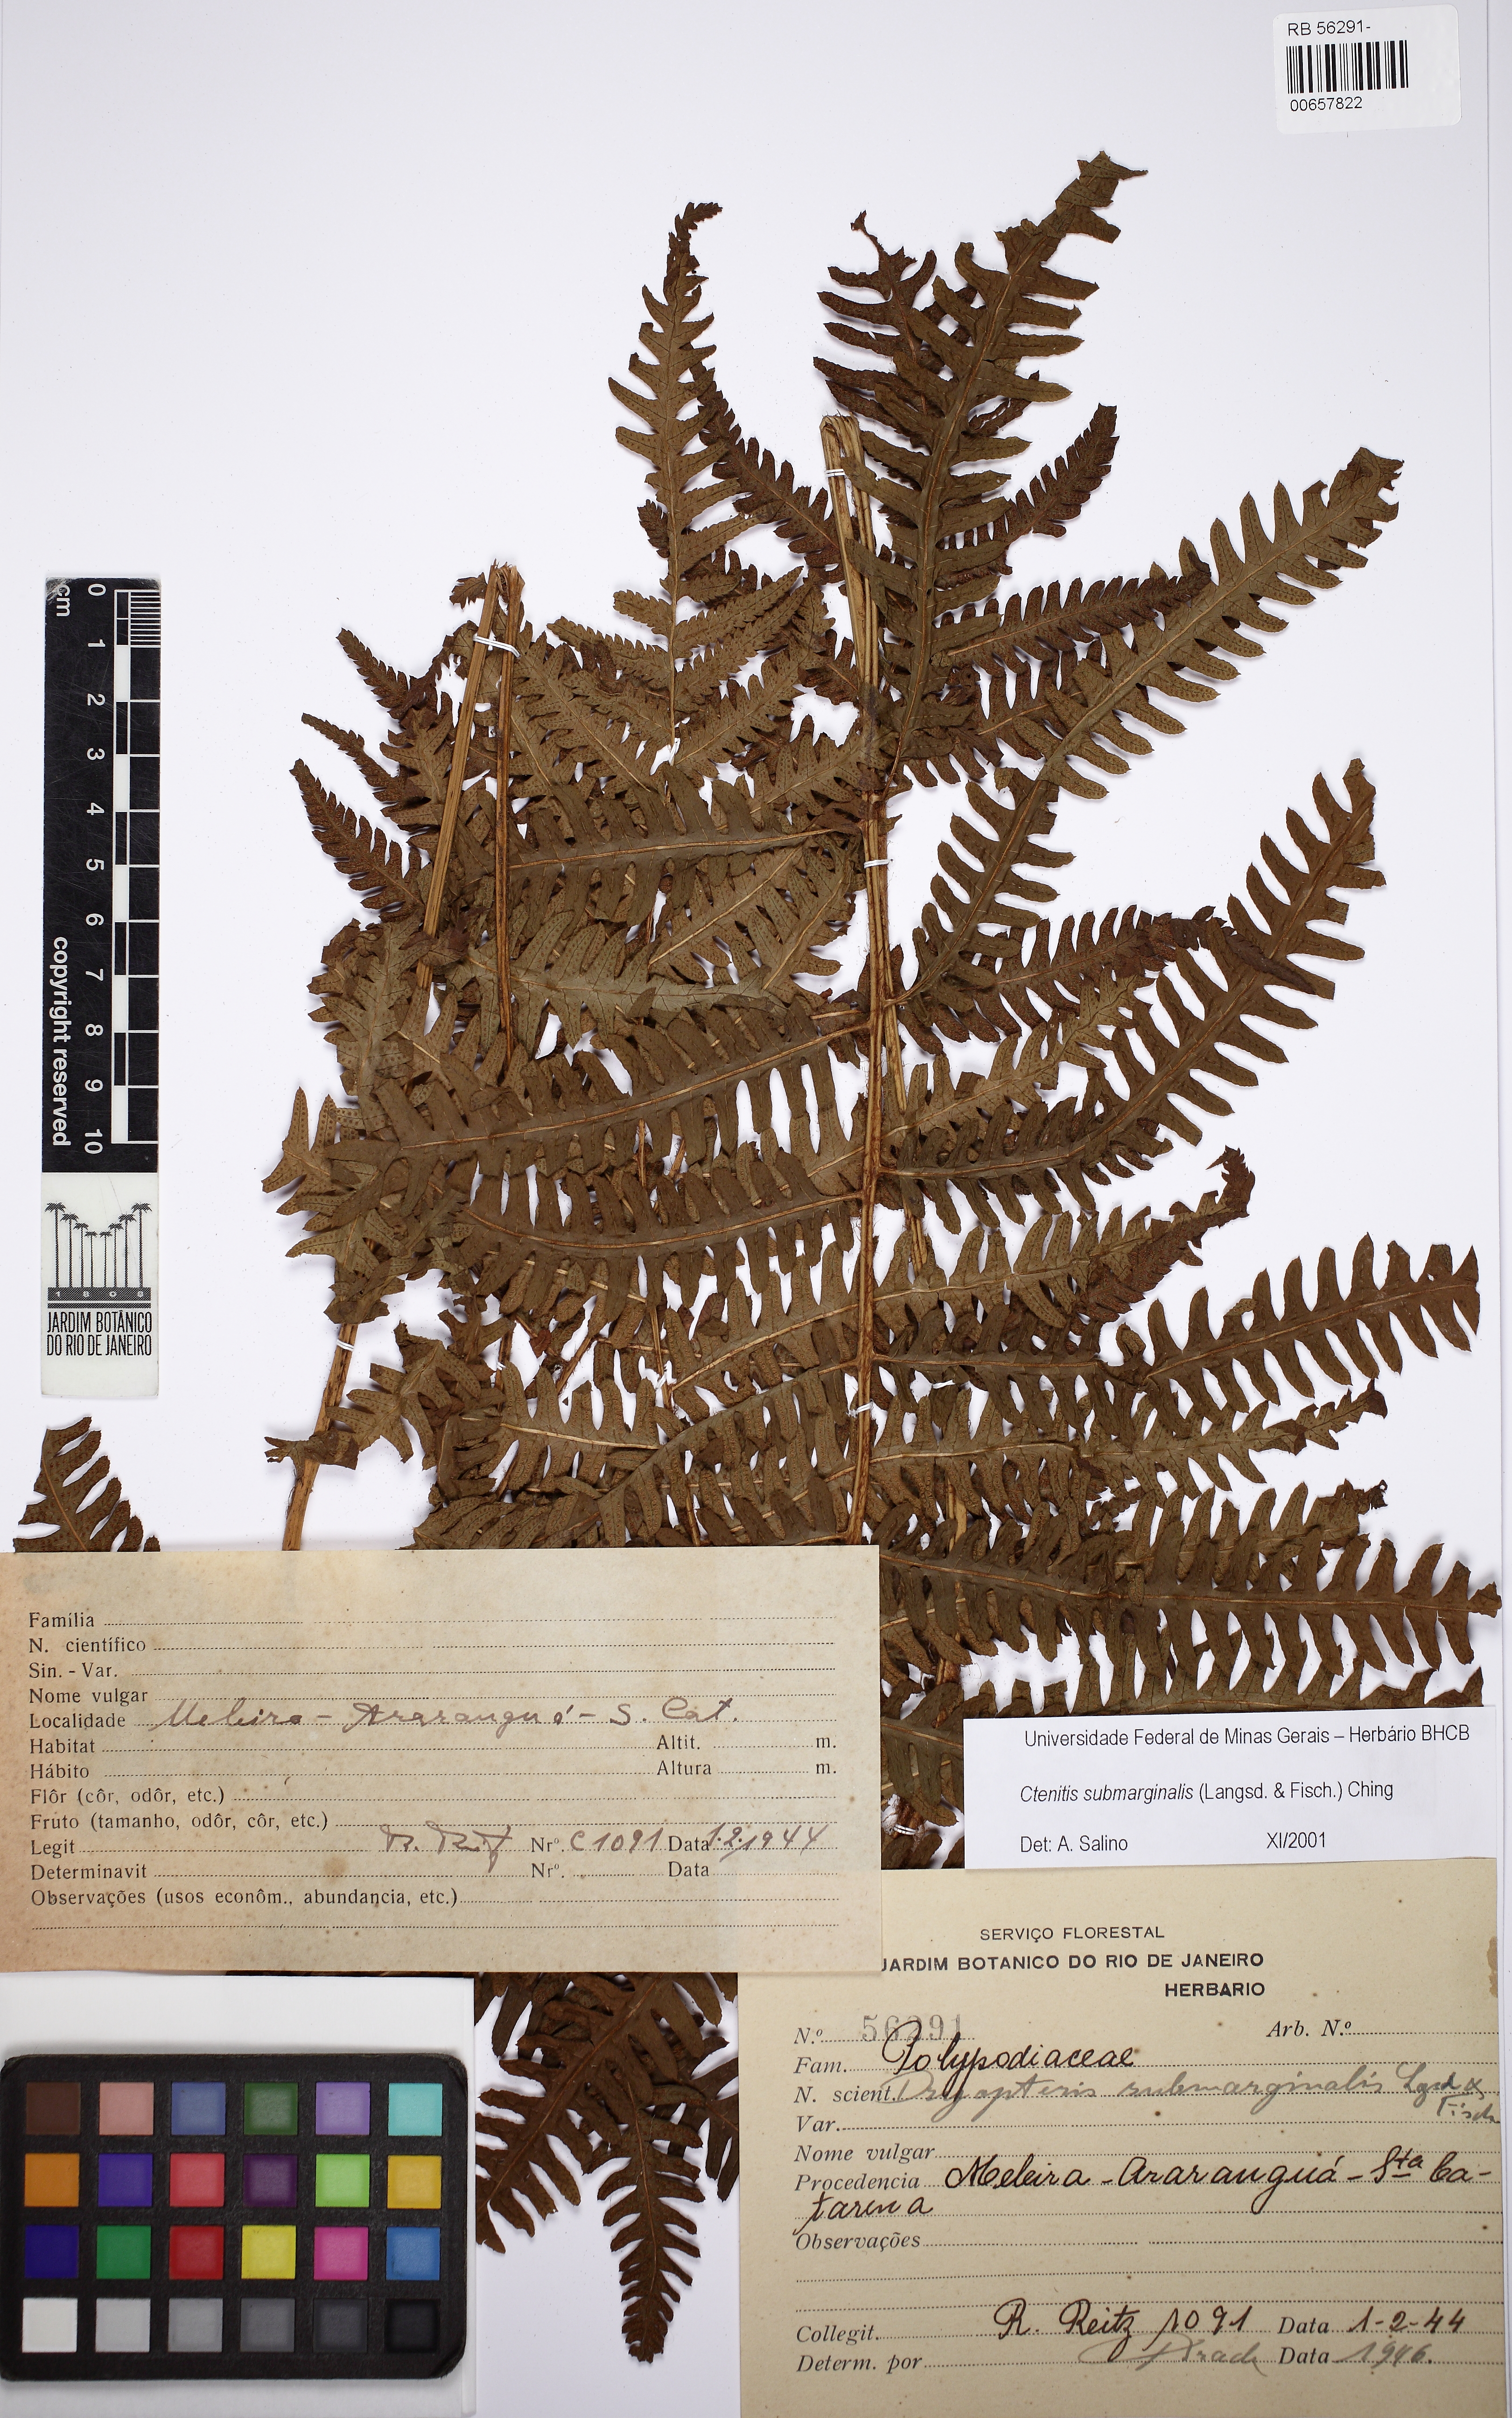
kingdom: Plantae
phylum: Tracheophyta
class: Polypodiopsida
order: Polypodiales
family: Dryopteridaceae
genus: Ctenitis
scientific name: Ctenitis falciculata
